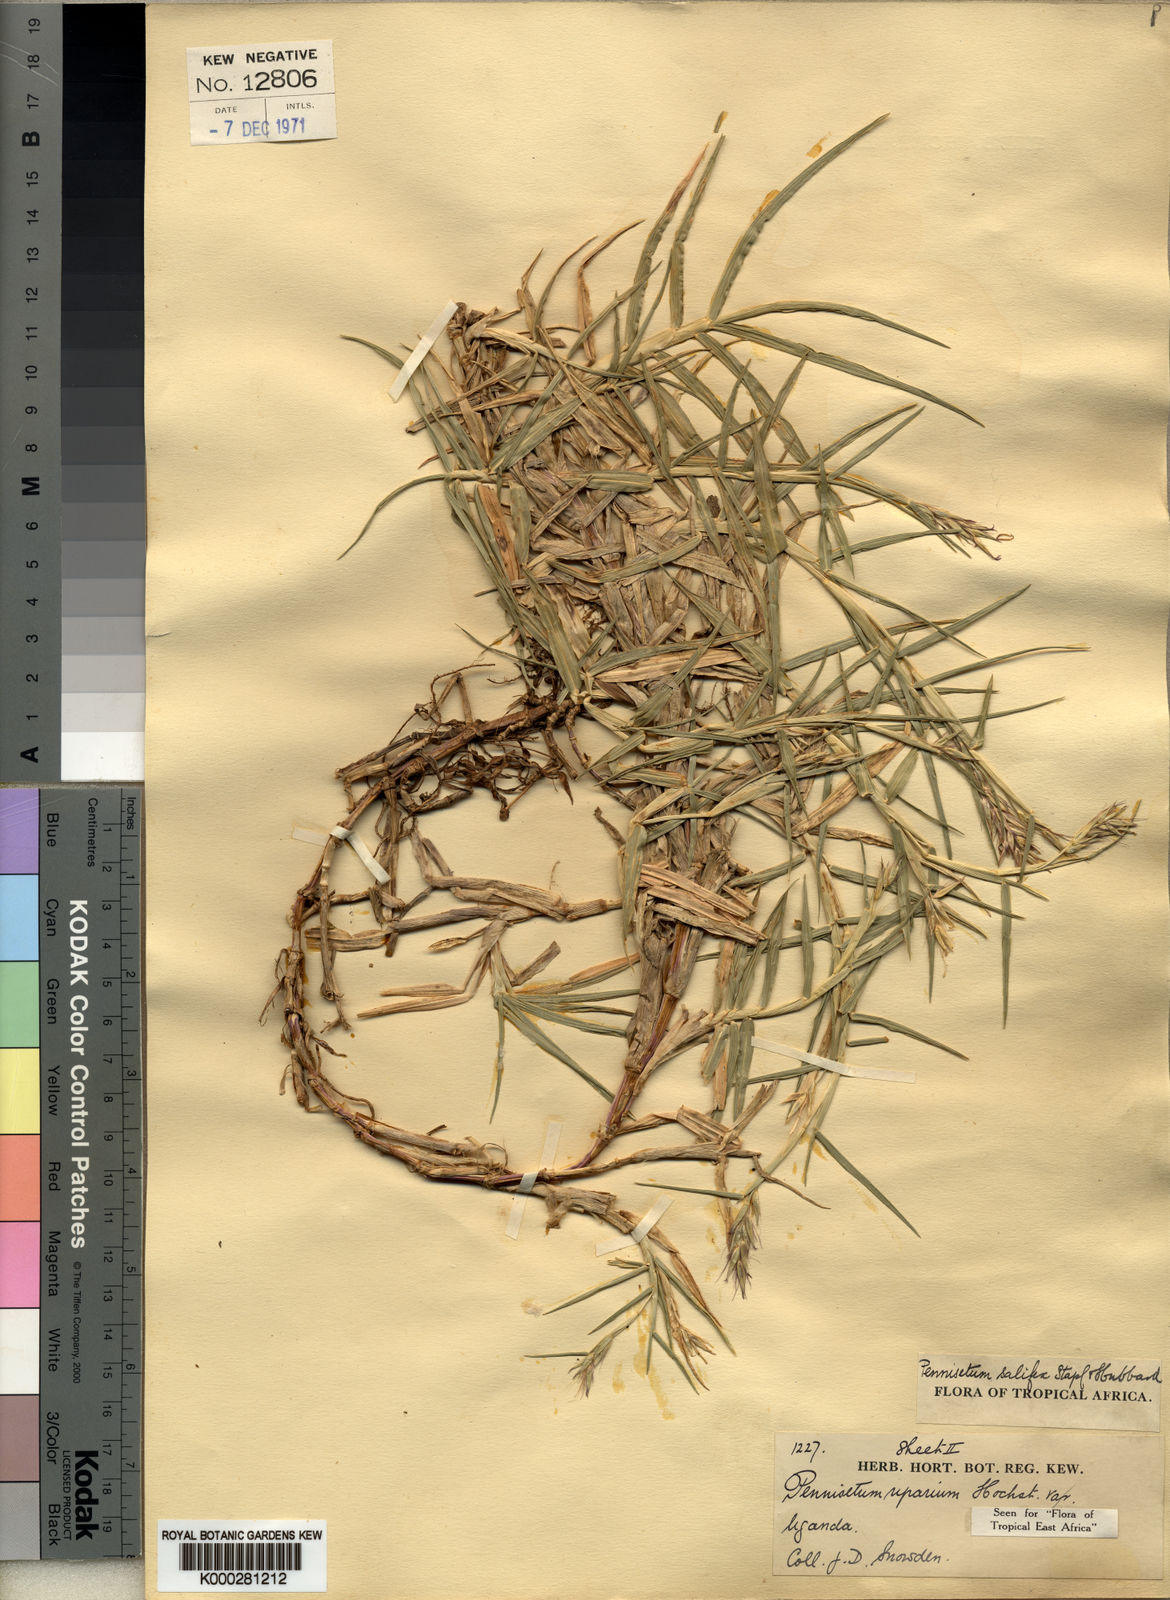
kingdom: Plantae
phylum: Tracheophyta
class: Liliopsida
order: Poales
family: Poaceae
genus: Cenchrus
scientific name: Cenchrus riparius
